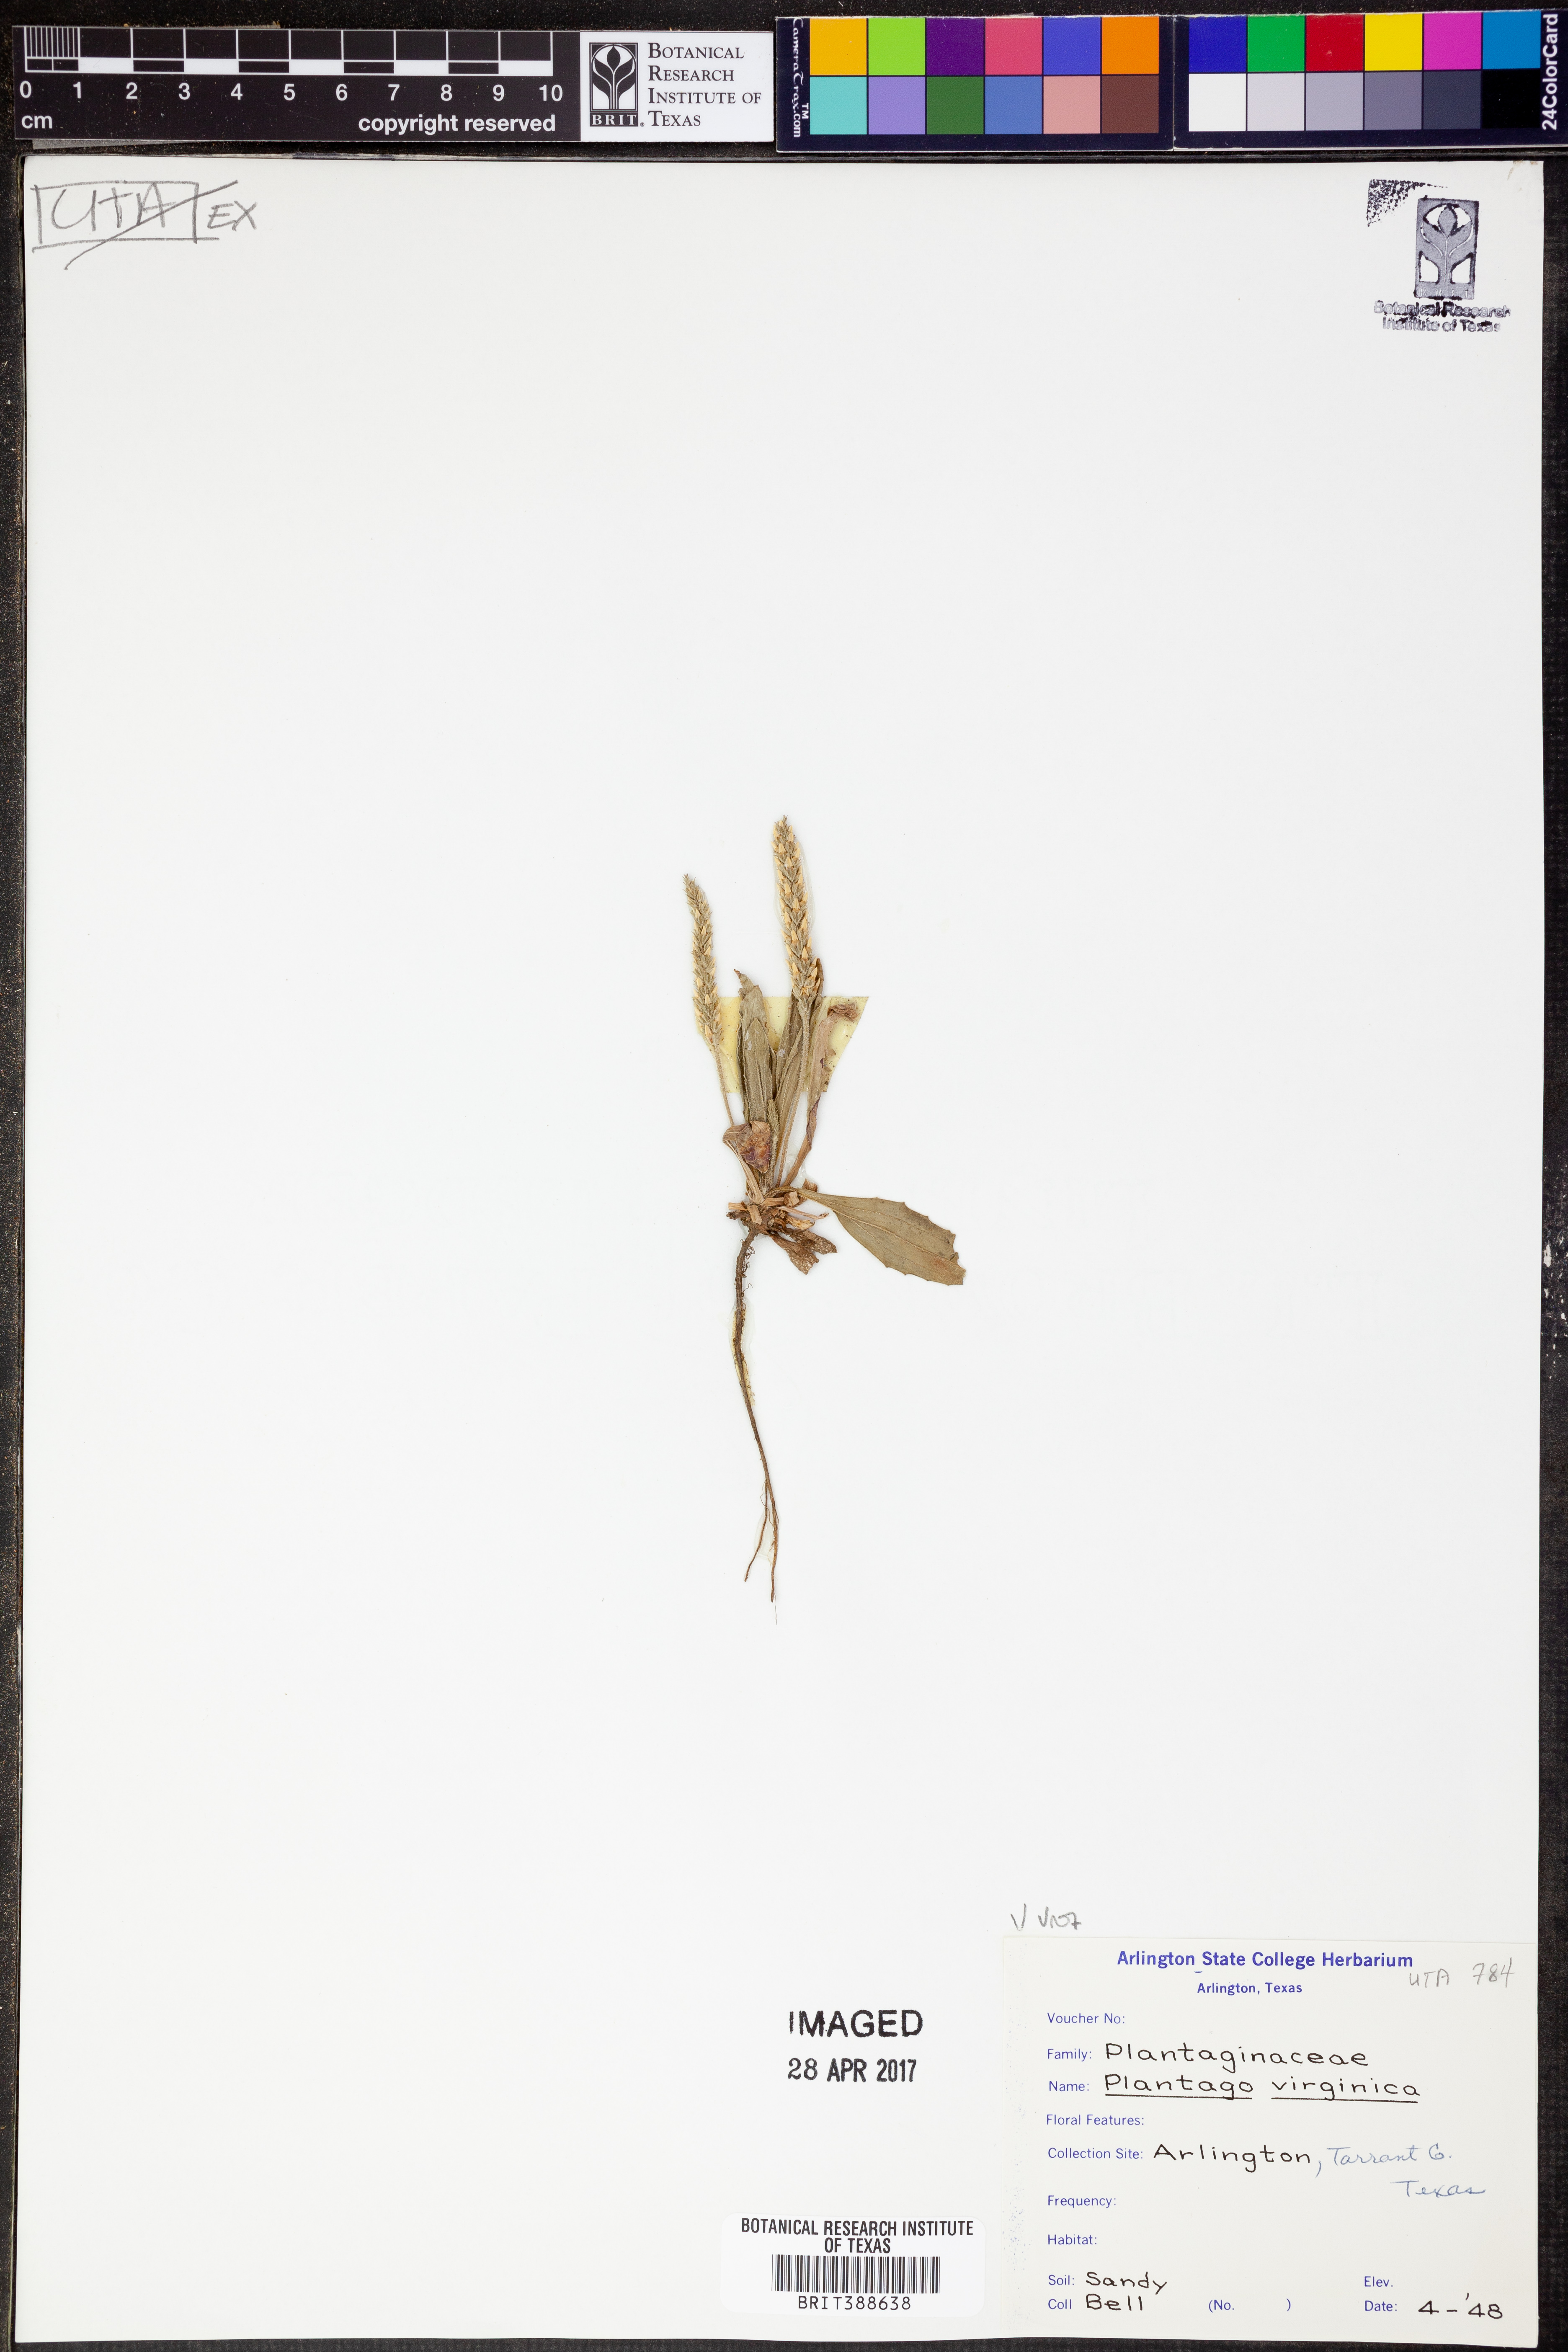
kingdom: Plantae
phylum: Tracheophyta
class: Magnoliopsida
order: Lamiales
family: Plantaginaceae
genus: Plantago
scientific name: Plantago virginica
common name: Hoary plantain
